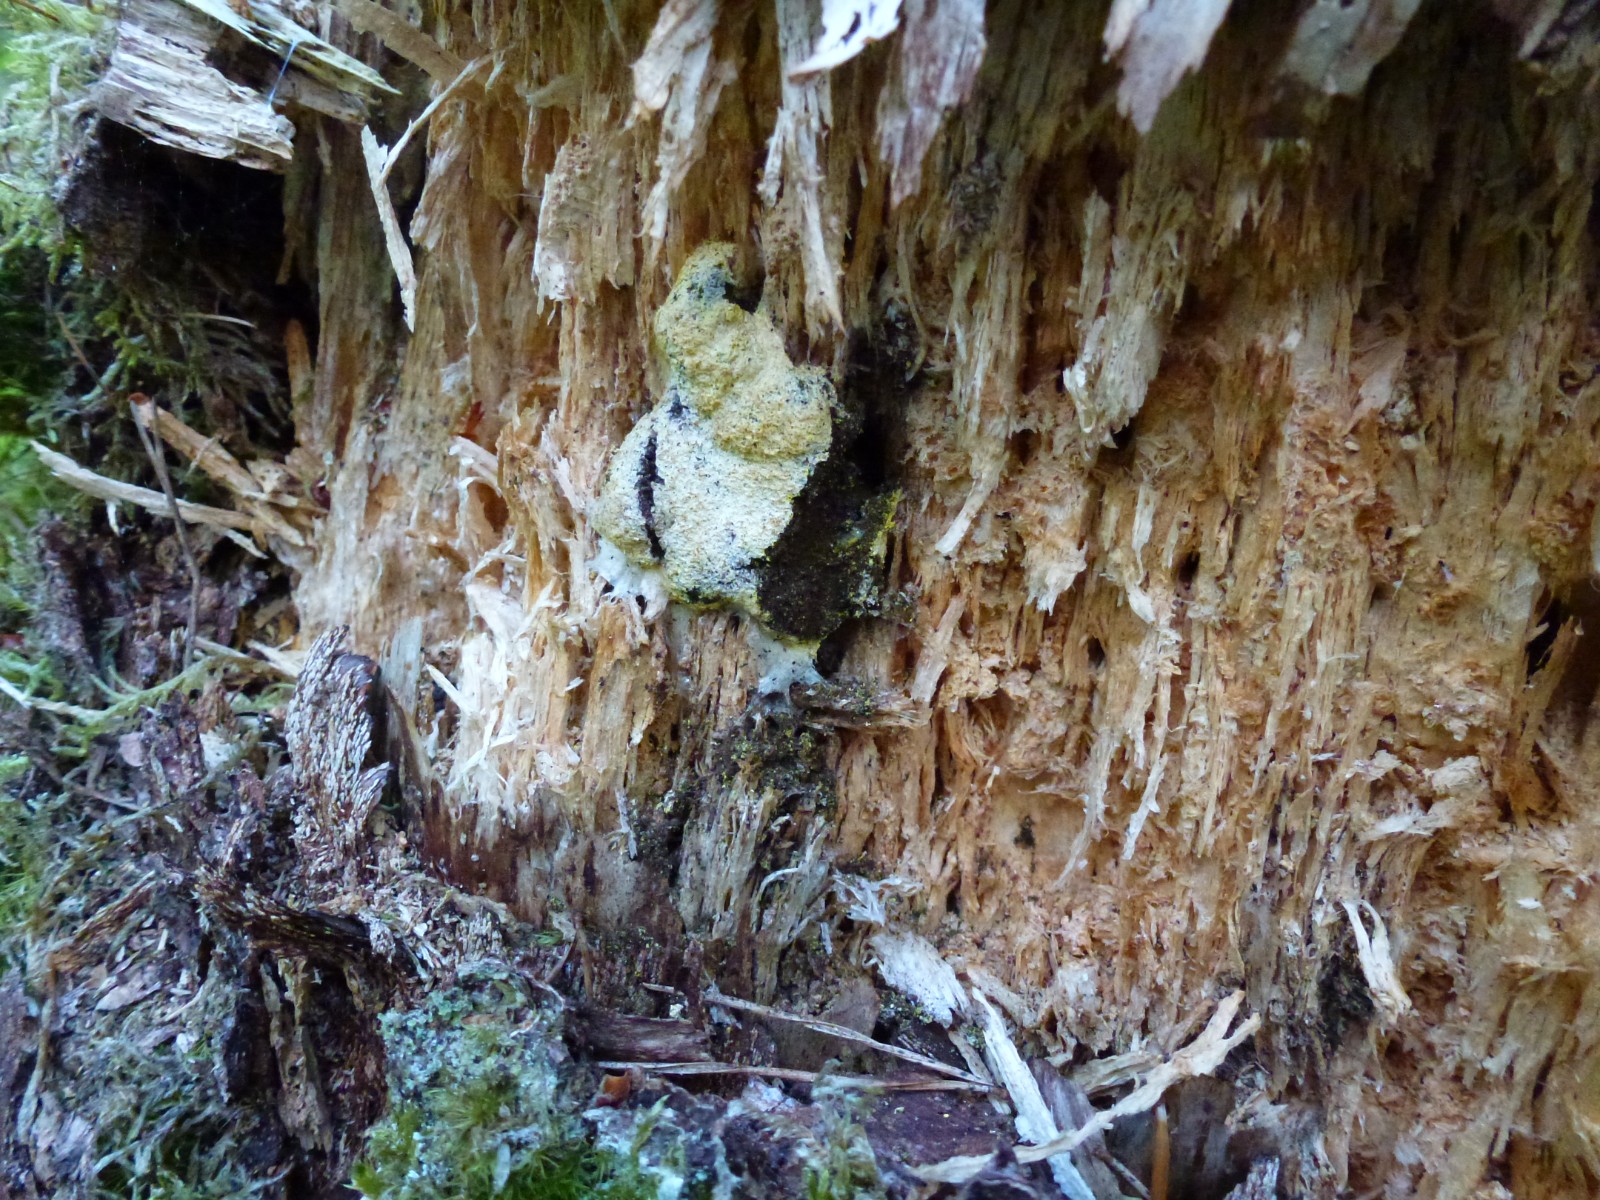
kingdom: Protozoa
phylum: Mycetozoa
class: Myxomycetes
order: Physarales
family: Physaraceae
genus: Fuligo
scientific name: Fuligo septica
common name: gul troldsmør
